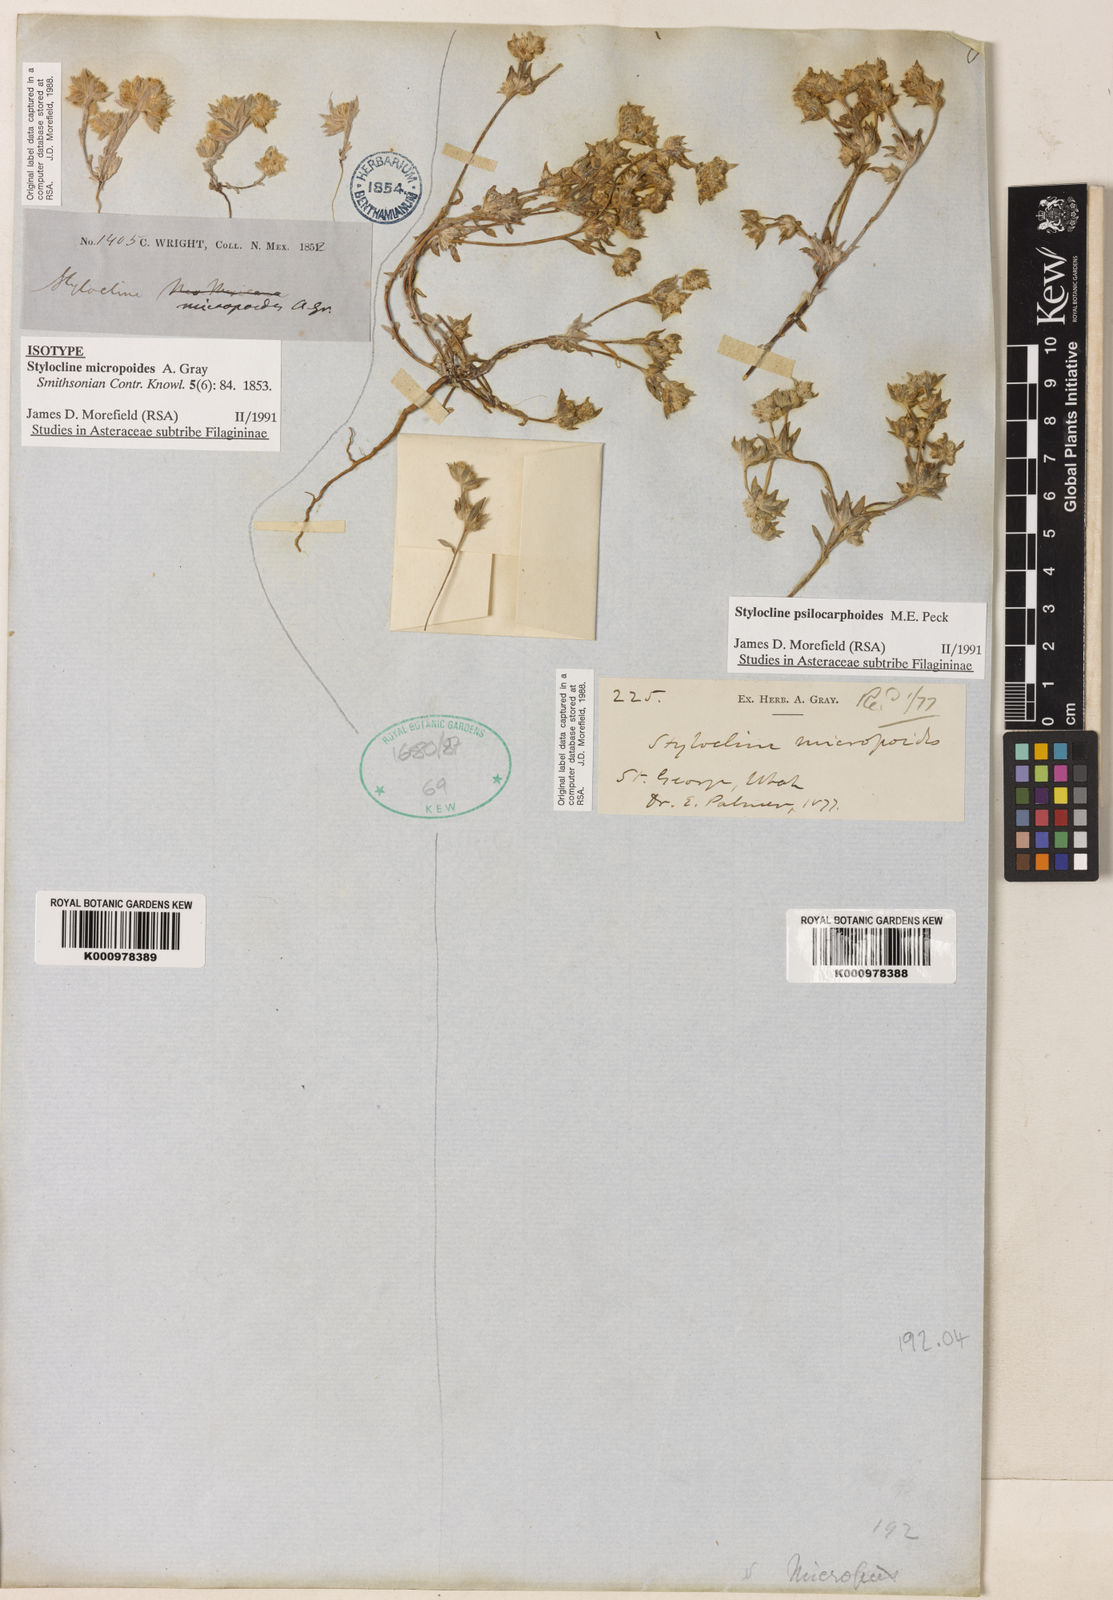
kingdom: Plantae
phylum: Tracheophyta
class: Magnoliopsida
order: Asterales
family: Asteraceae
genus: Stylocline
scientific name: Stylocline micropoides
